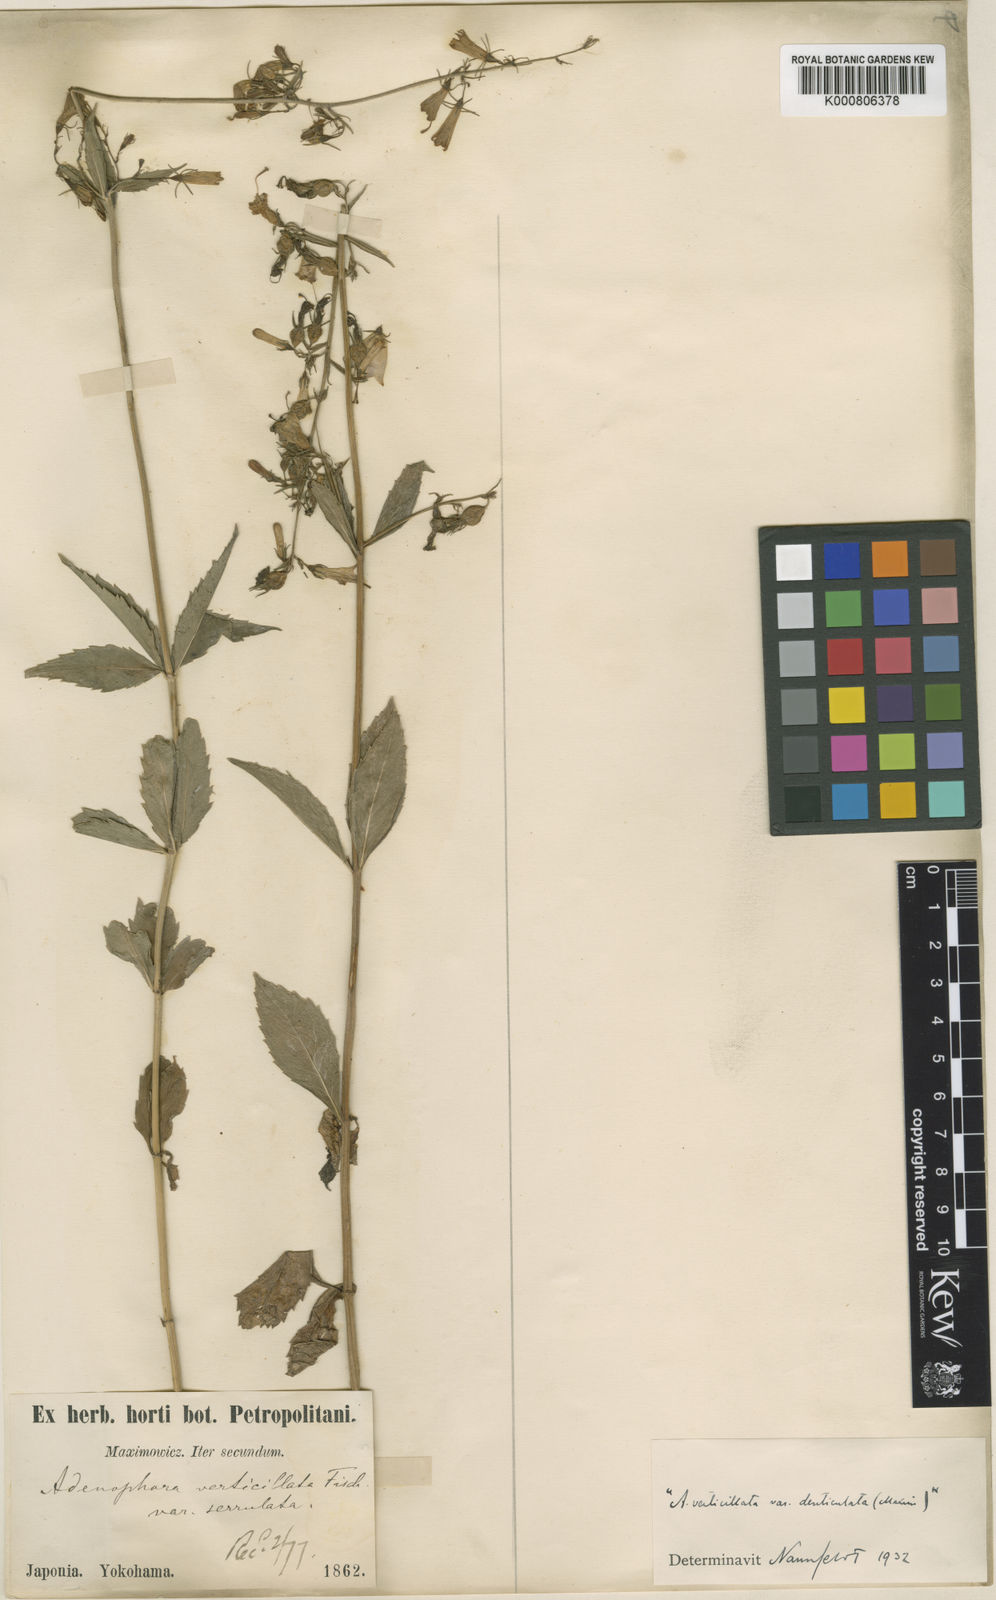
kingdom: Plantae
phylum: Tracheophyta
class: Magnoliopsida
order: Asterales
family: Campanulaceae
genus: Adenophora
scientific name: Adenophora triphylla
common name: Giant-bellflower
